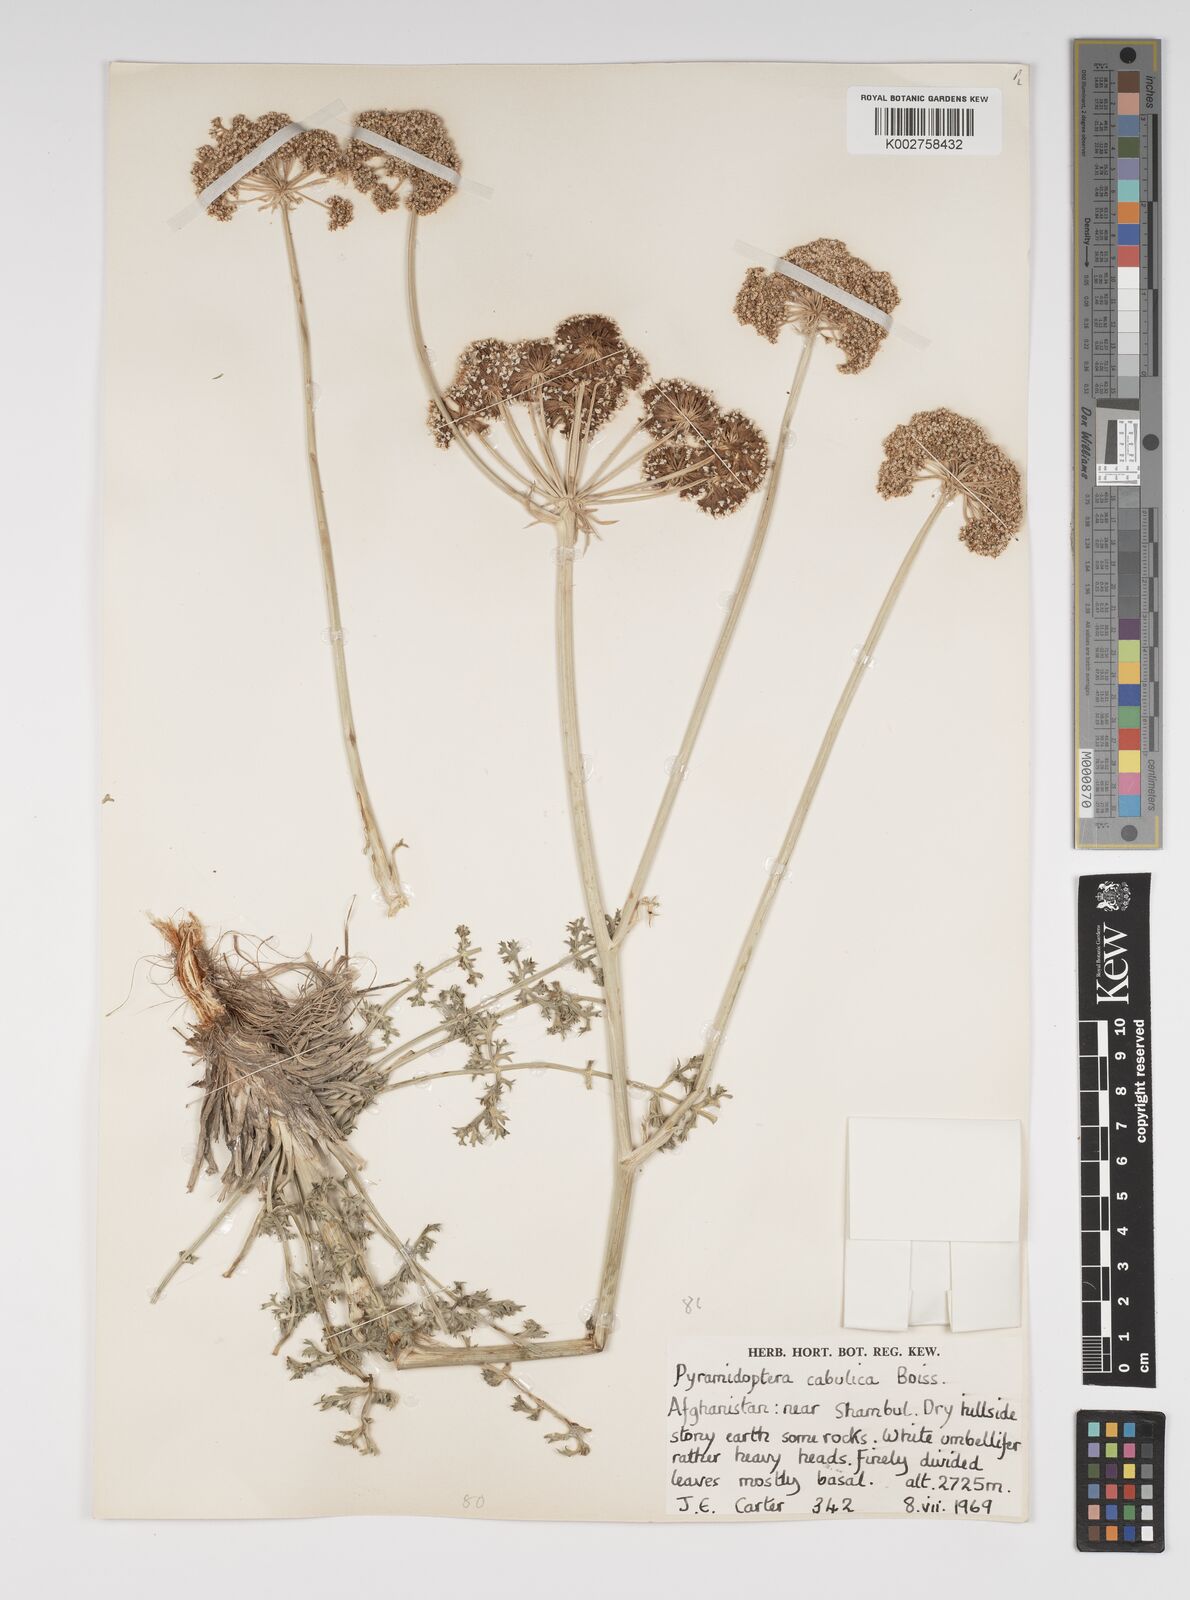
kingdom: Plantae
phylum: Tracheophyta
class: Magnoliopsida
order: Apiales
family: Apiaceae
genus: Pyramidoptera
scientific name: Pyramidoptera cabulica
